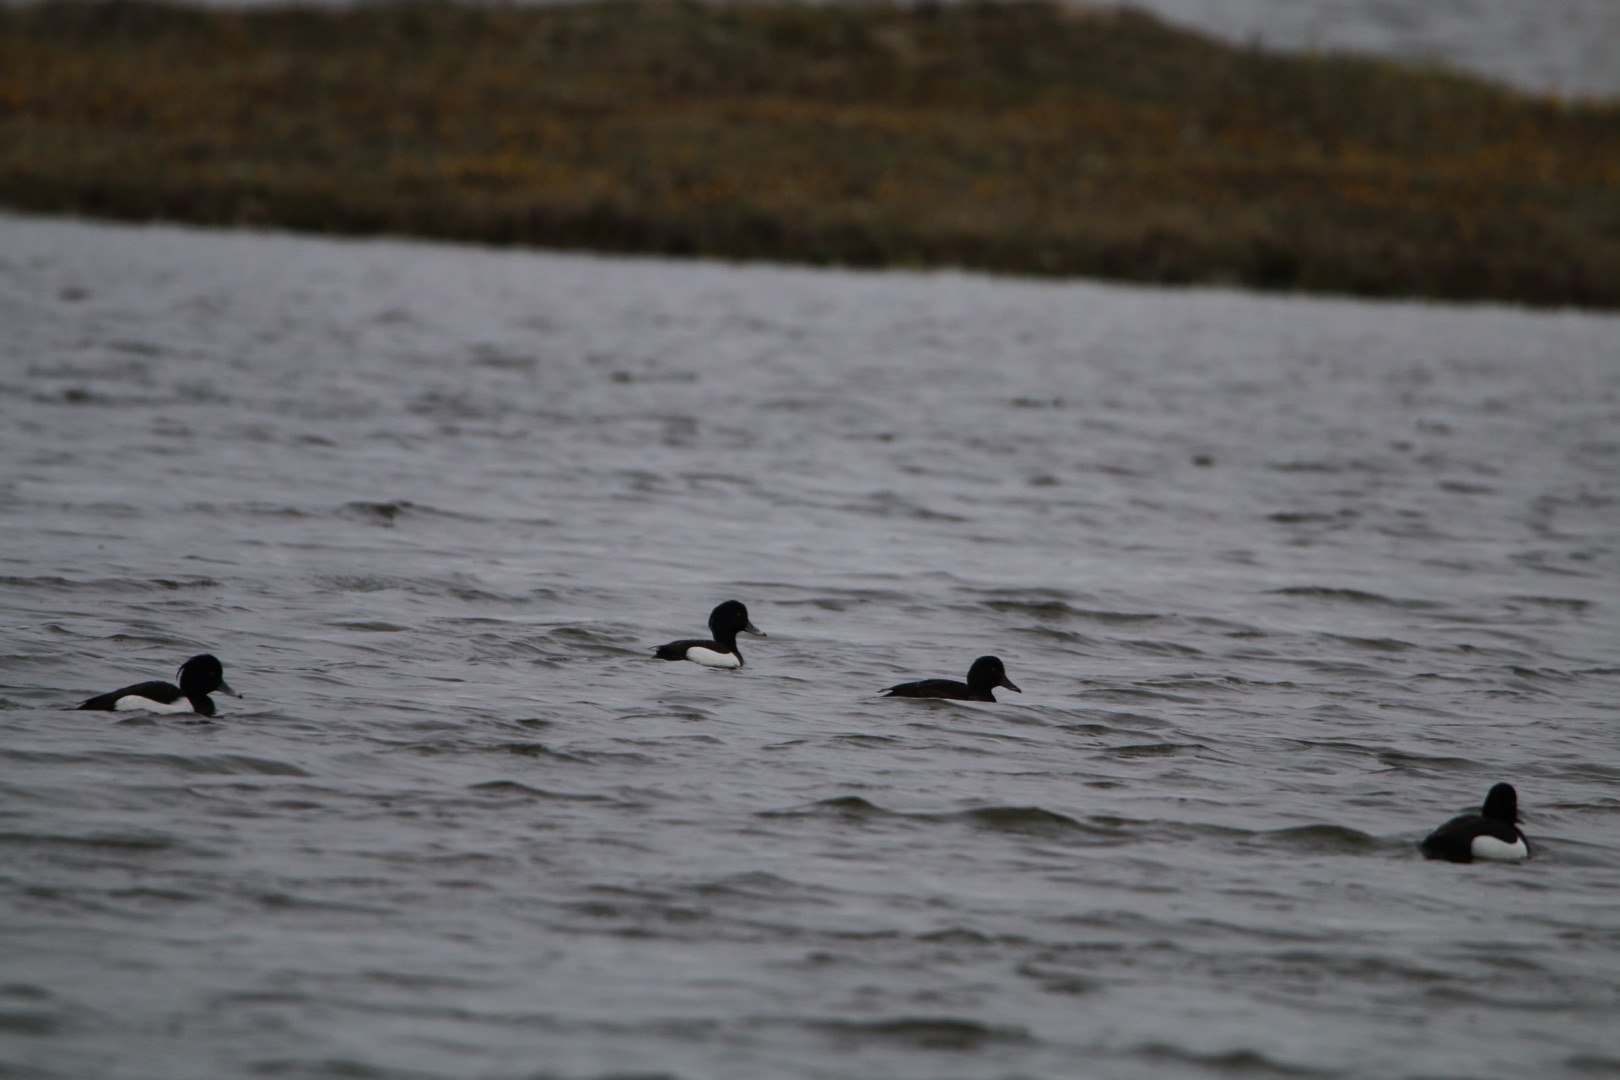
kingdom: Animalia
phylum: Chordata
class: Aves
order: Anseriformes
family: Anatidae
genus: Aythya
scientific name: Aythya fuligula
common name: Troldand
